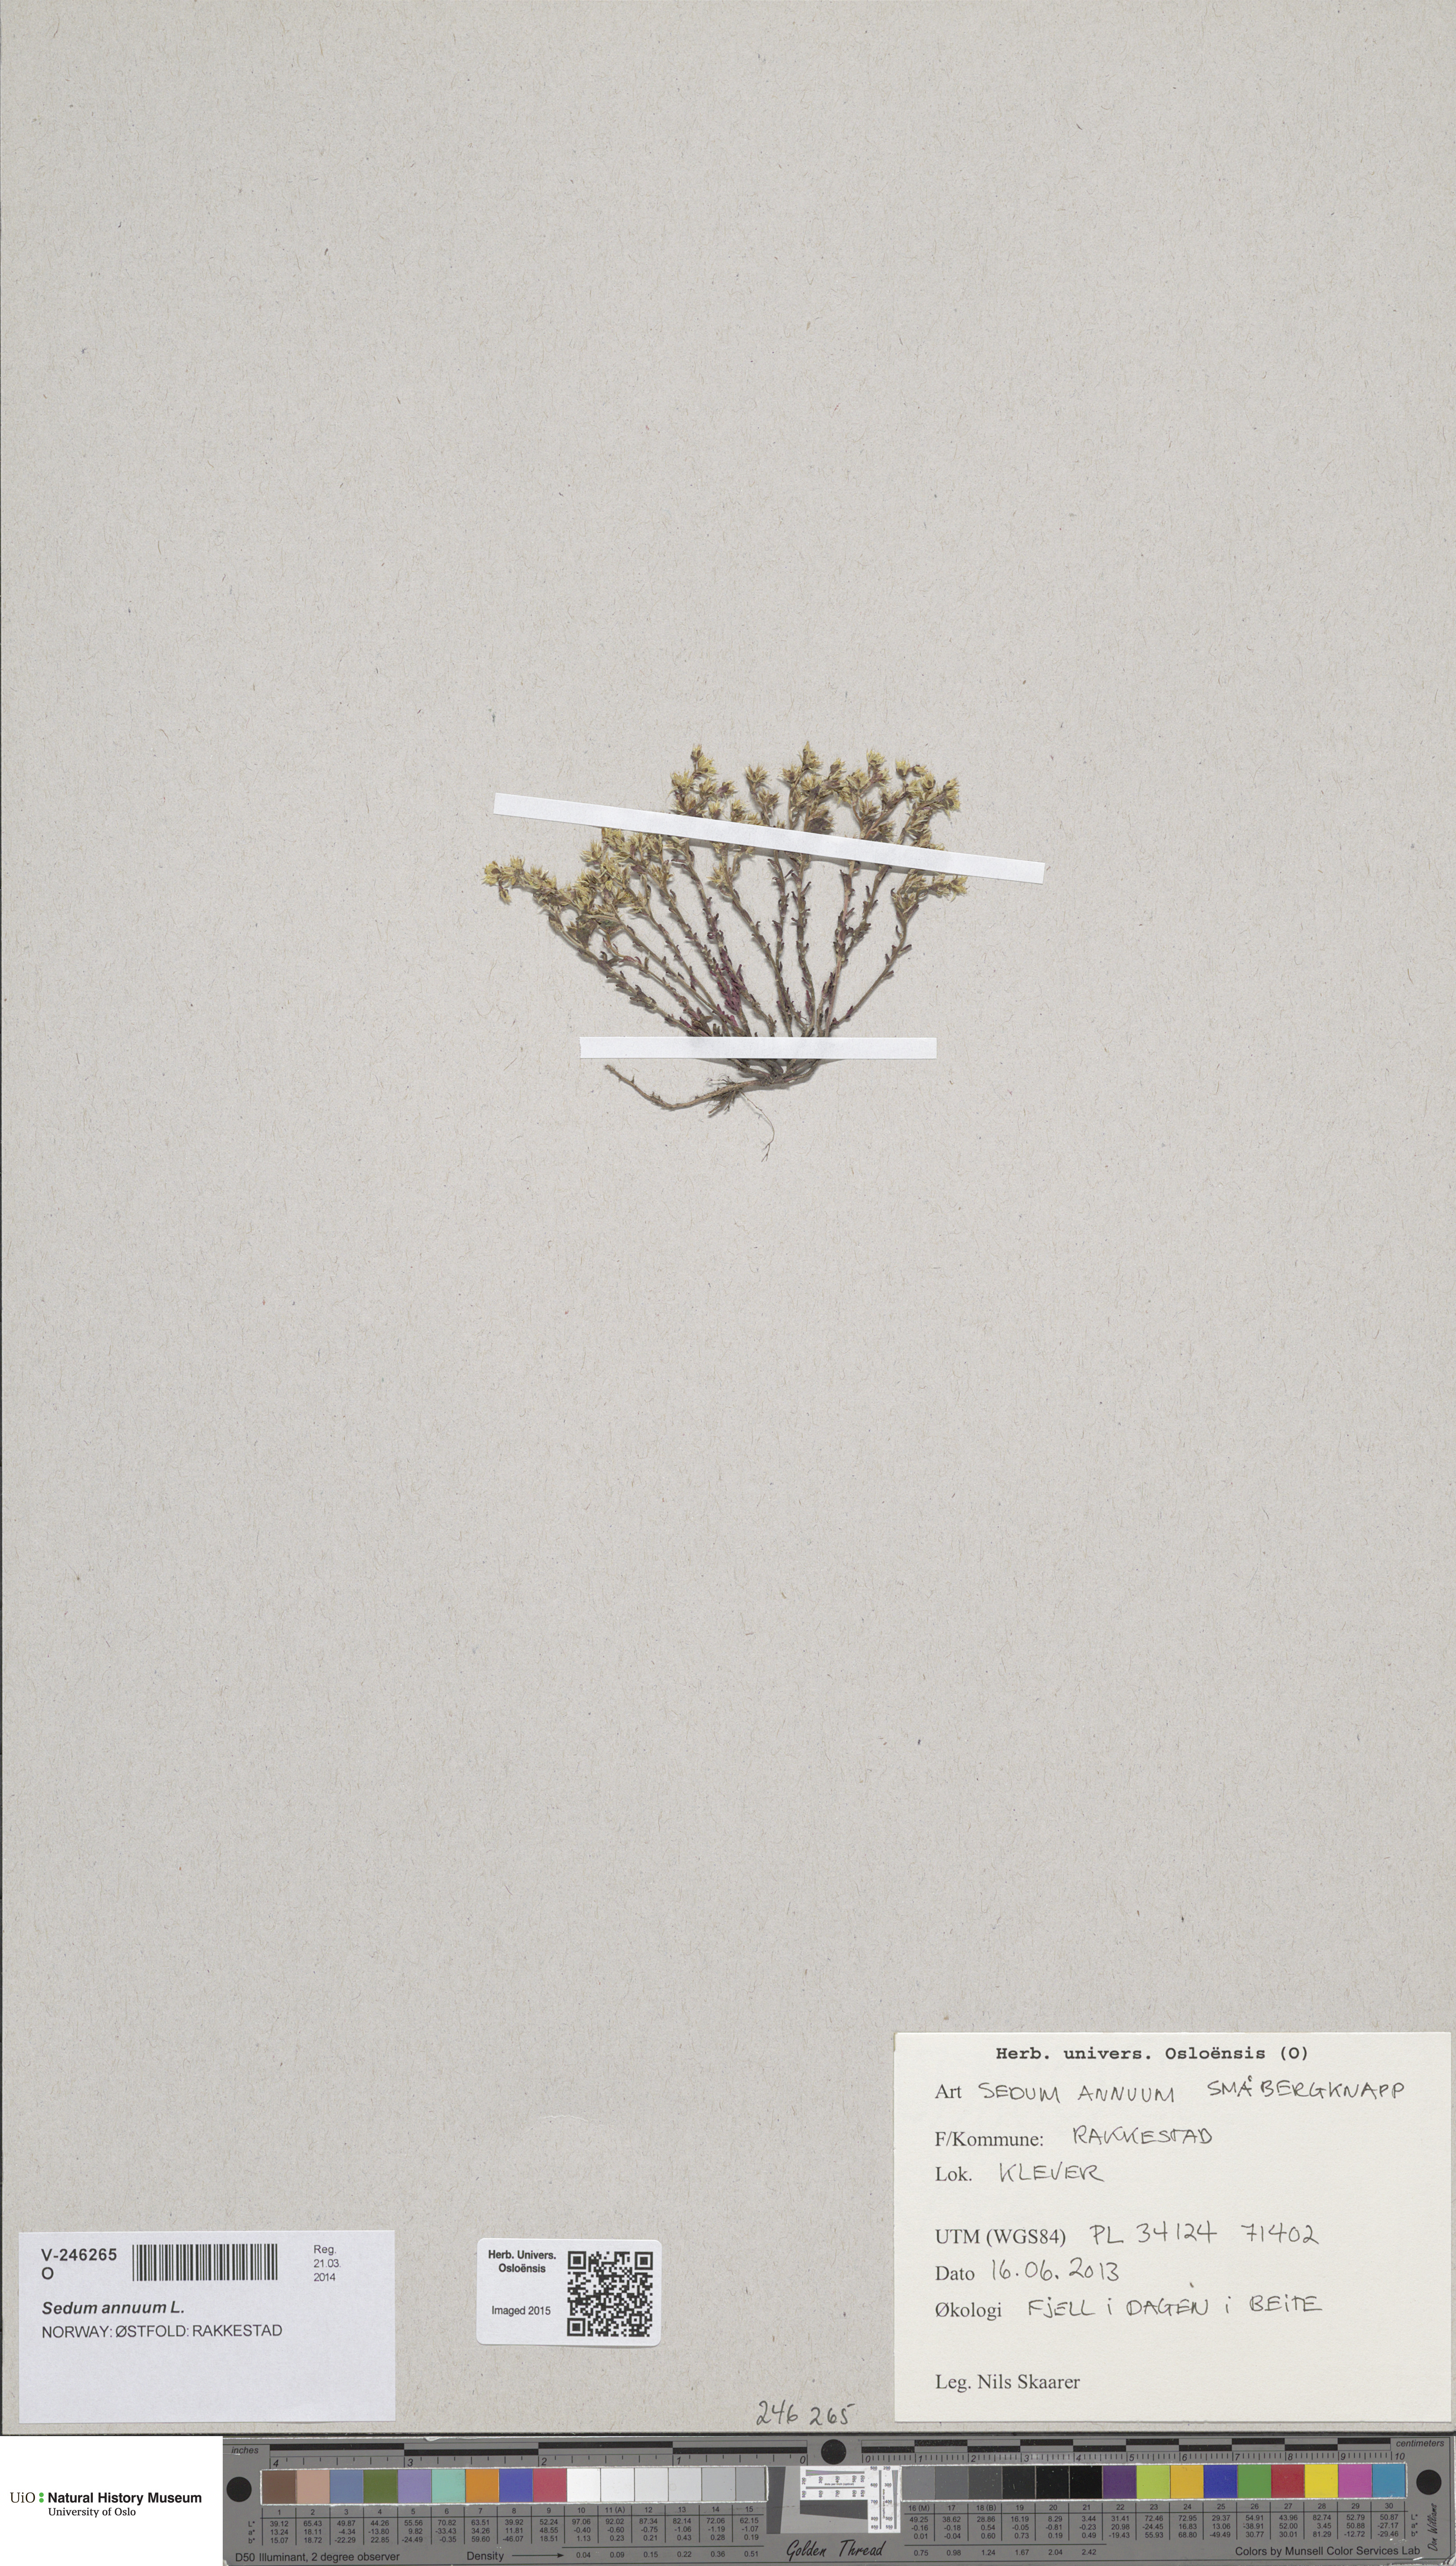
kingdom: Plantae
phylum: Tracheophyta
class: Magnoliopsida
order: Saxifragales
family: Crassulaceae
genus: Sedum
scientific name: Sedum annuum
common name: Annual stonecrop
